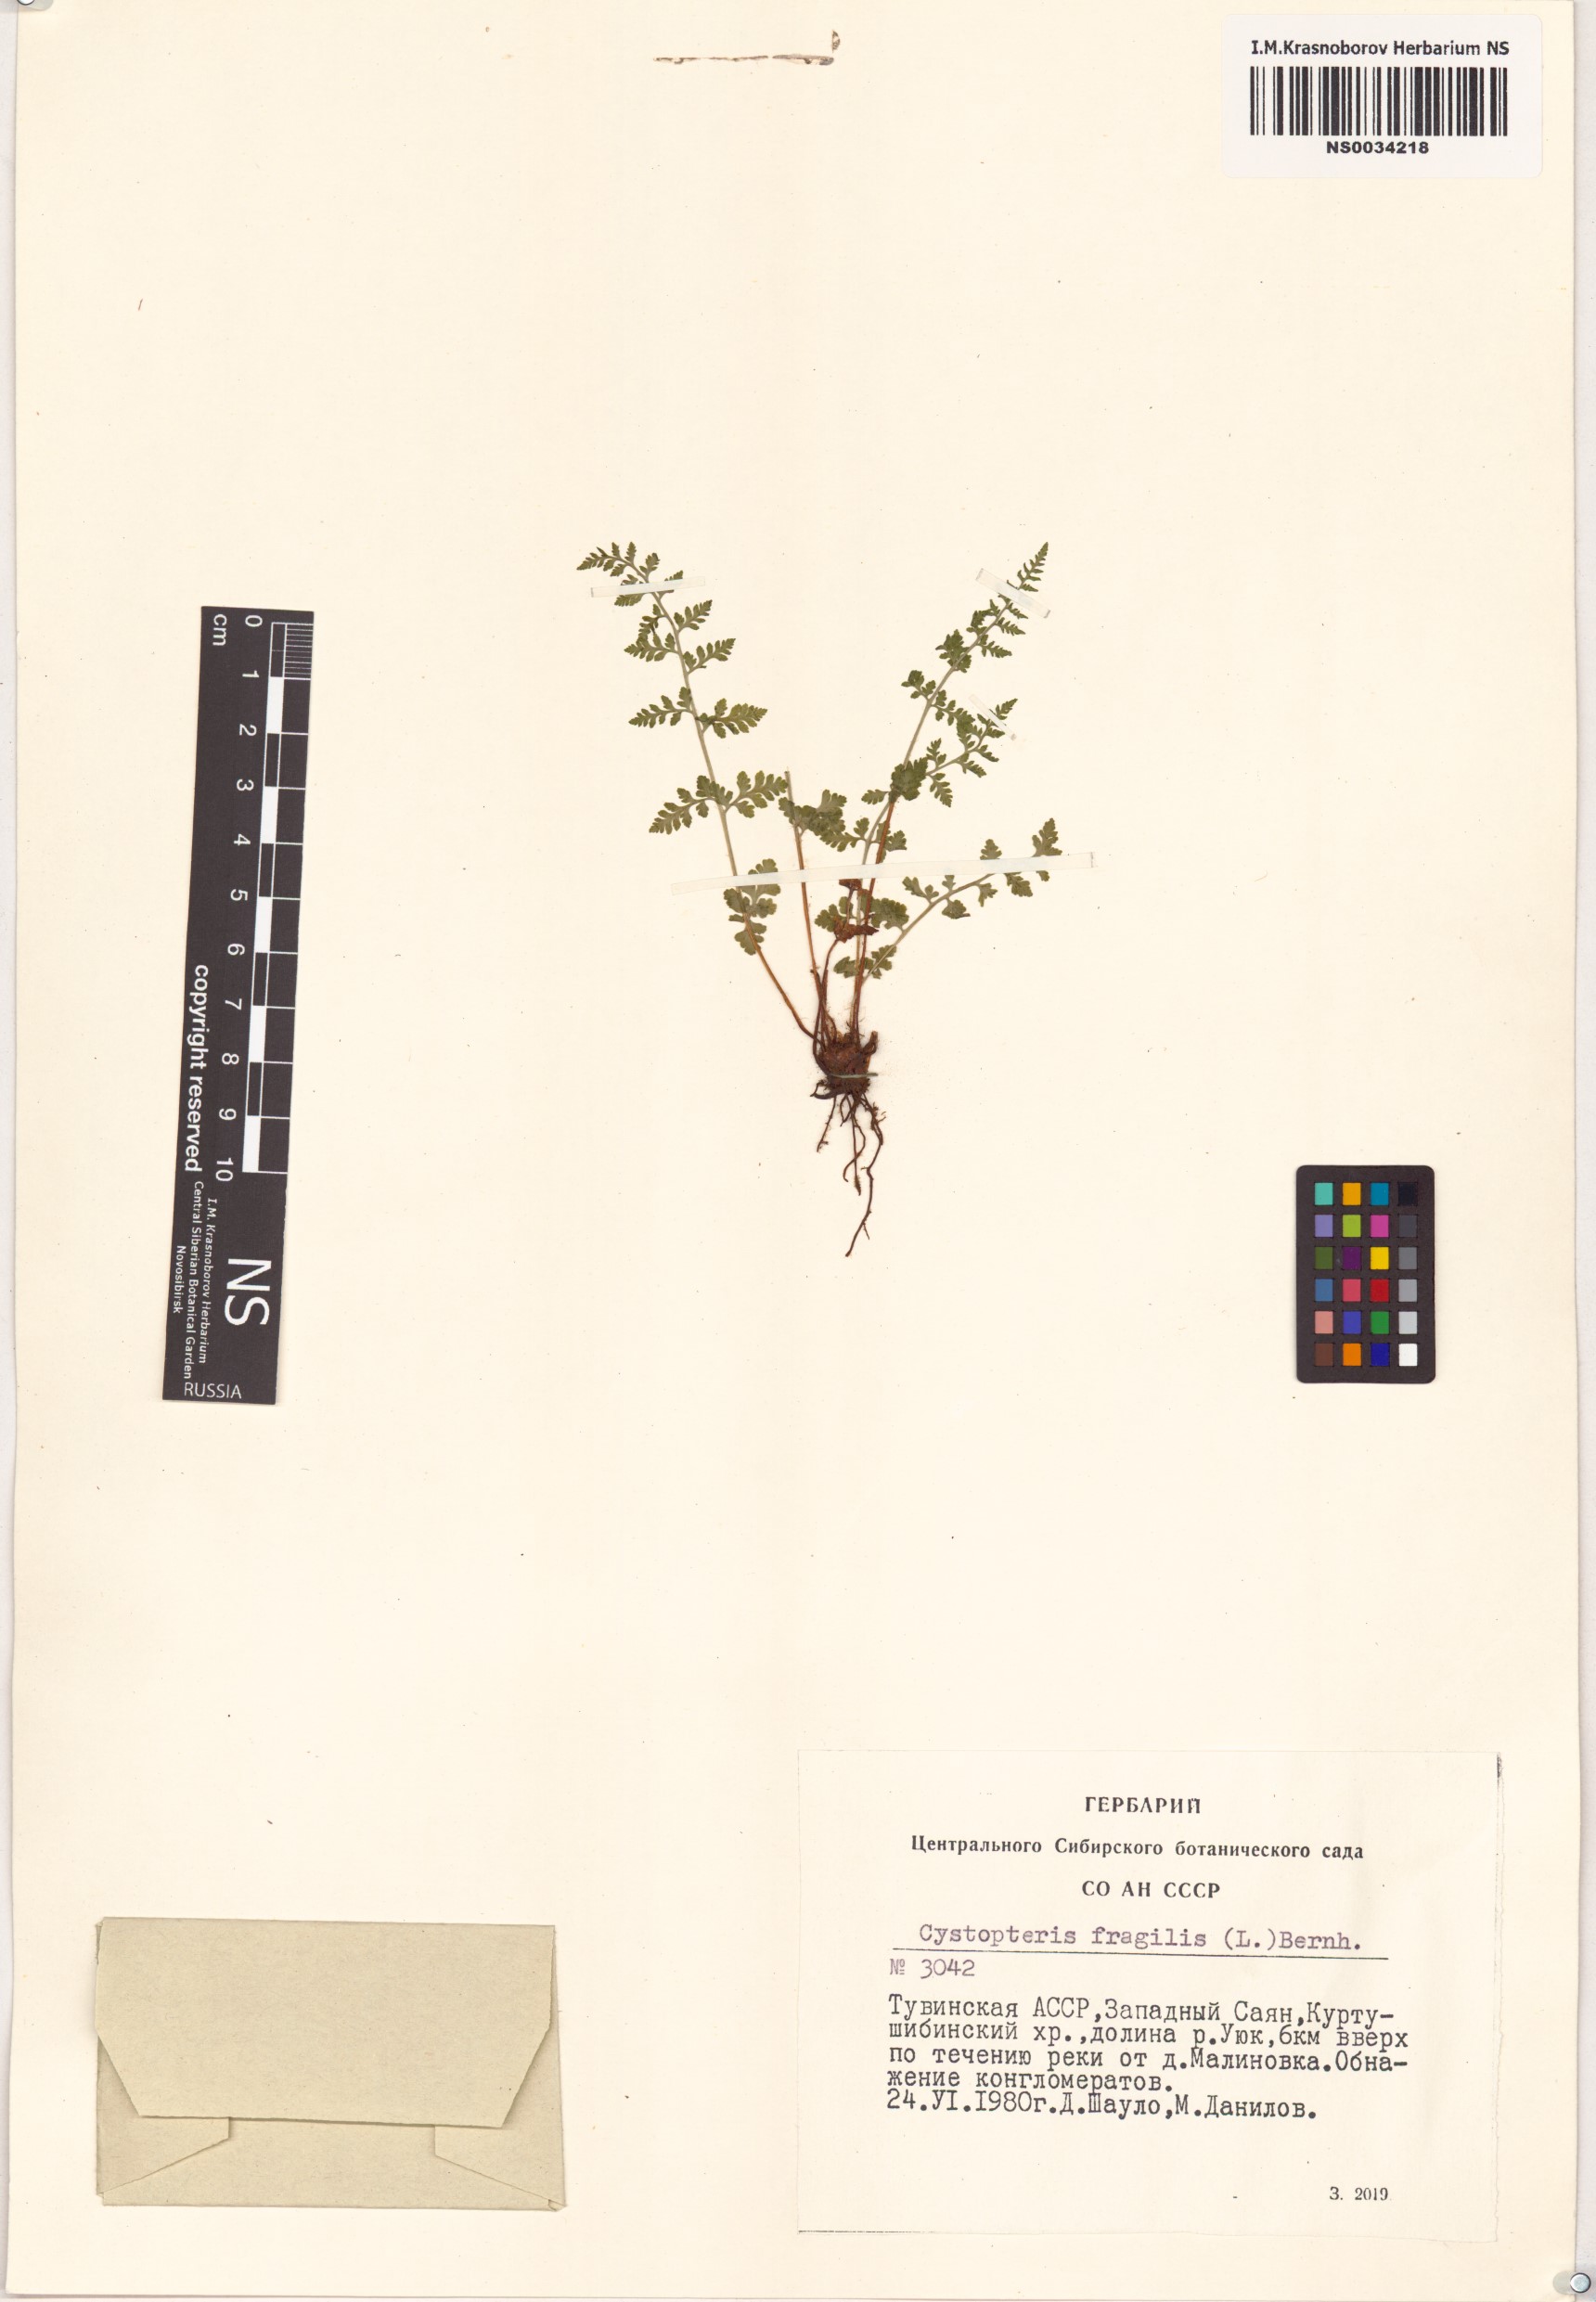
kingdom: Plantae
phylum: Tracheophyta
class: Polypodiopsida
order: Polypodiales
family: Cystopteridaceae
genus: Cystopteris
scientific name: Cystopteris fragilis
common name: Brittle bladder fern
